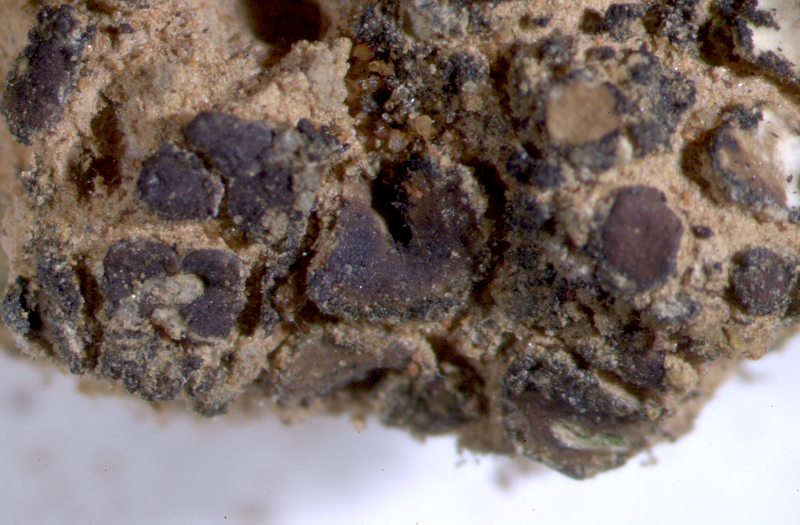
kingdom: Fungi
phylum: Ascomycota
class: Eurotiomycetes
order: Verrucariales
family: Verrucariaceae
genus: Catapyrenium
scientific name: Catapyrenium tenellum
